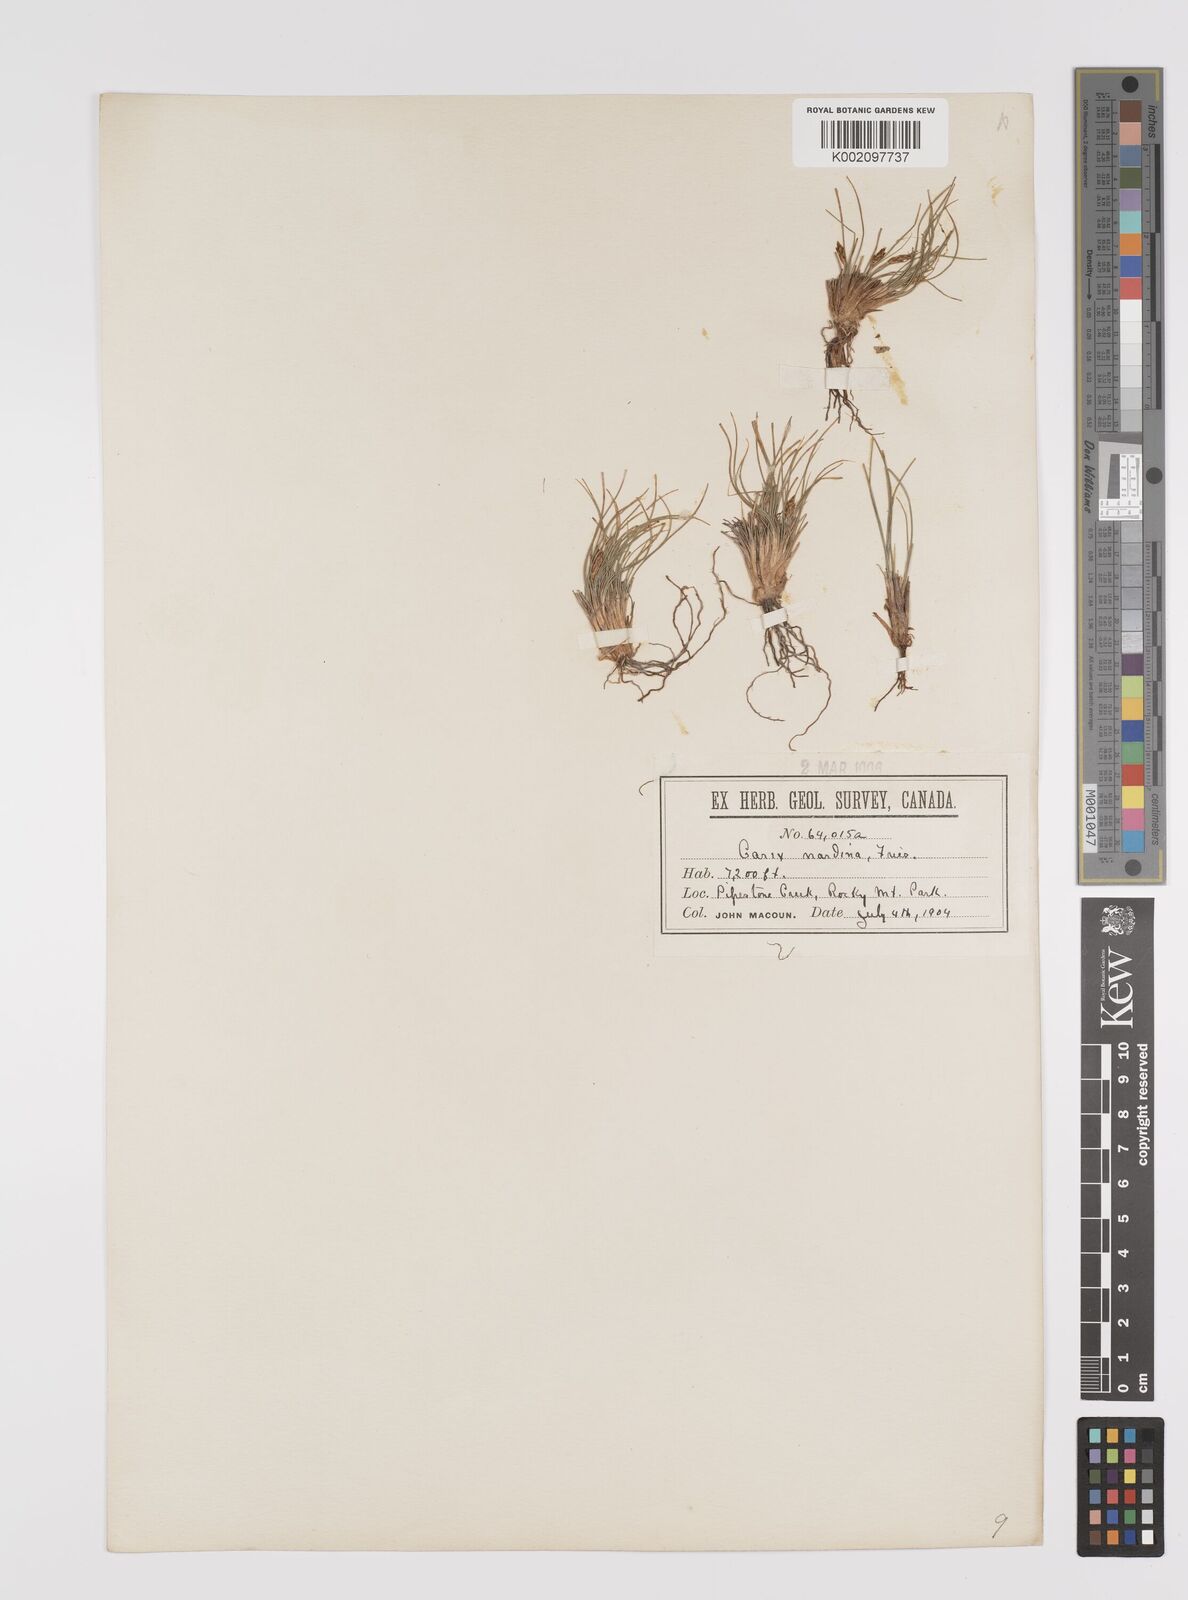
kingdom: Plantae
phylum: Tracheophyta
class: Liliopsida
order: Poales
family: Cyperaceae
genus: Carex
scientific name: Carex nardina
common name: Nard sedge
